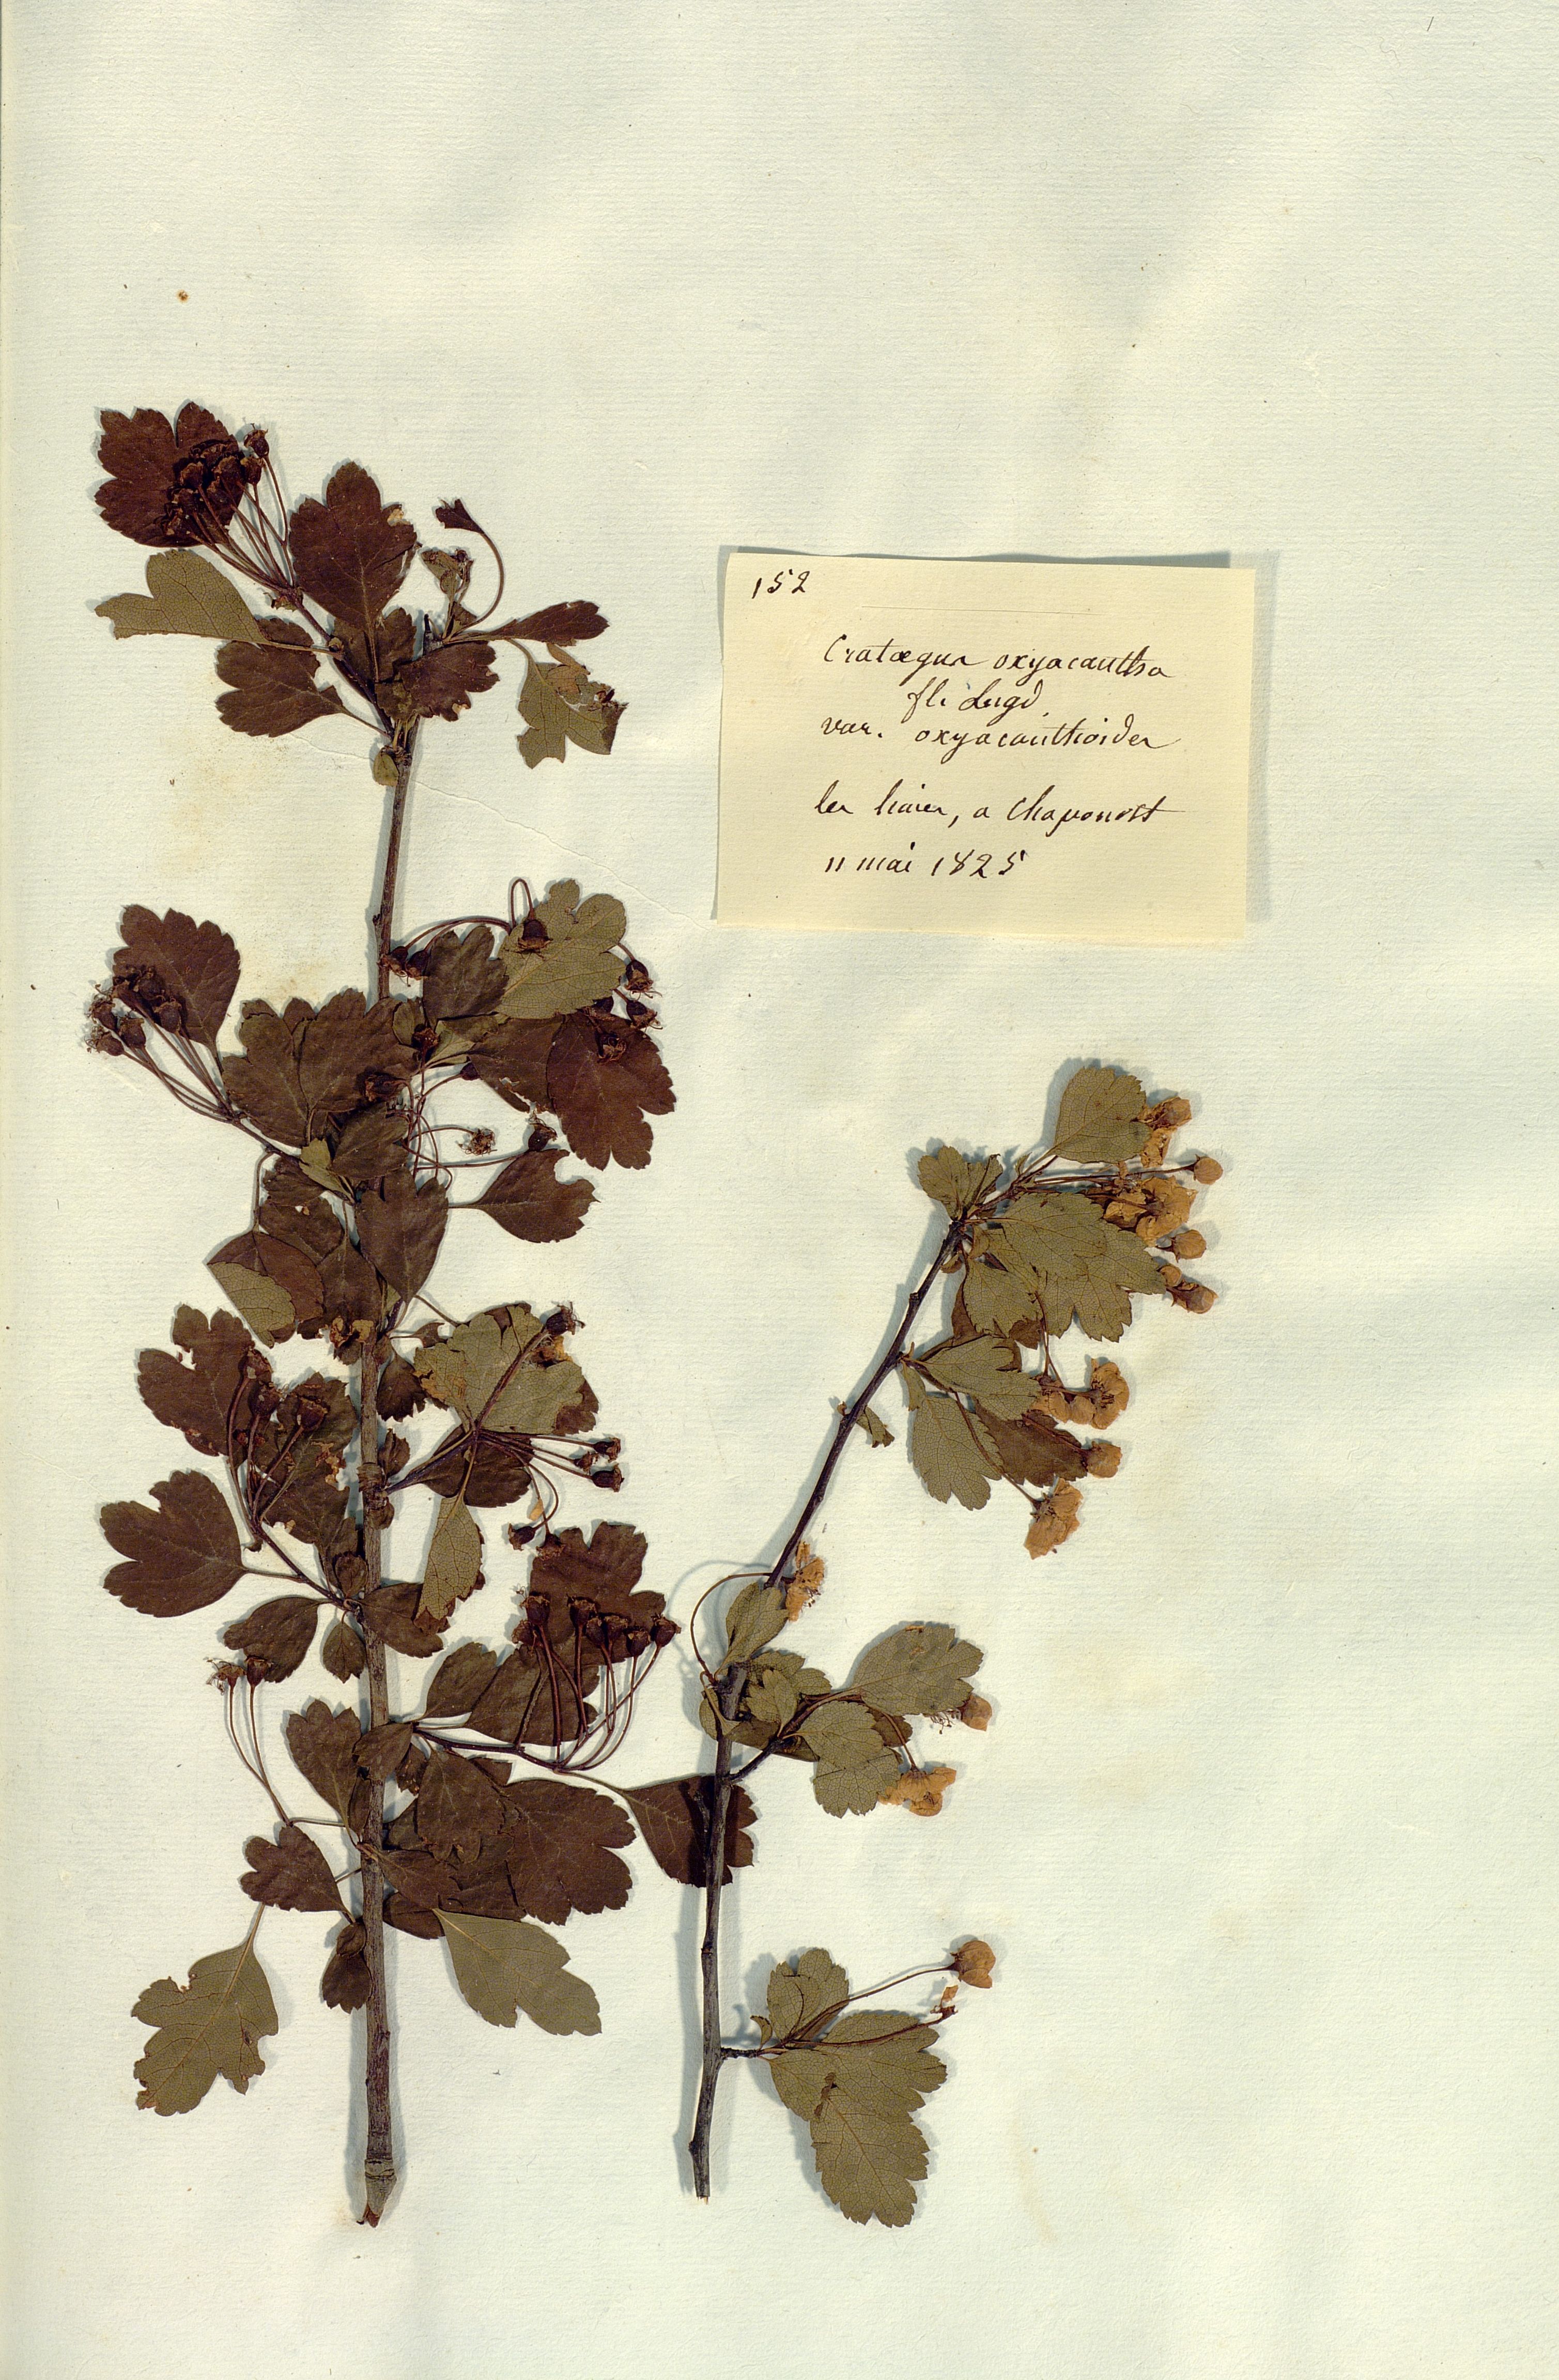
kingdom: Plantae
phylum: Tracheophyta
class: Magnoliopsida
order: Rosales
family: Rosaceae
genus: Crataegus
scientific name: Crataegus
